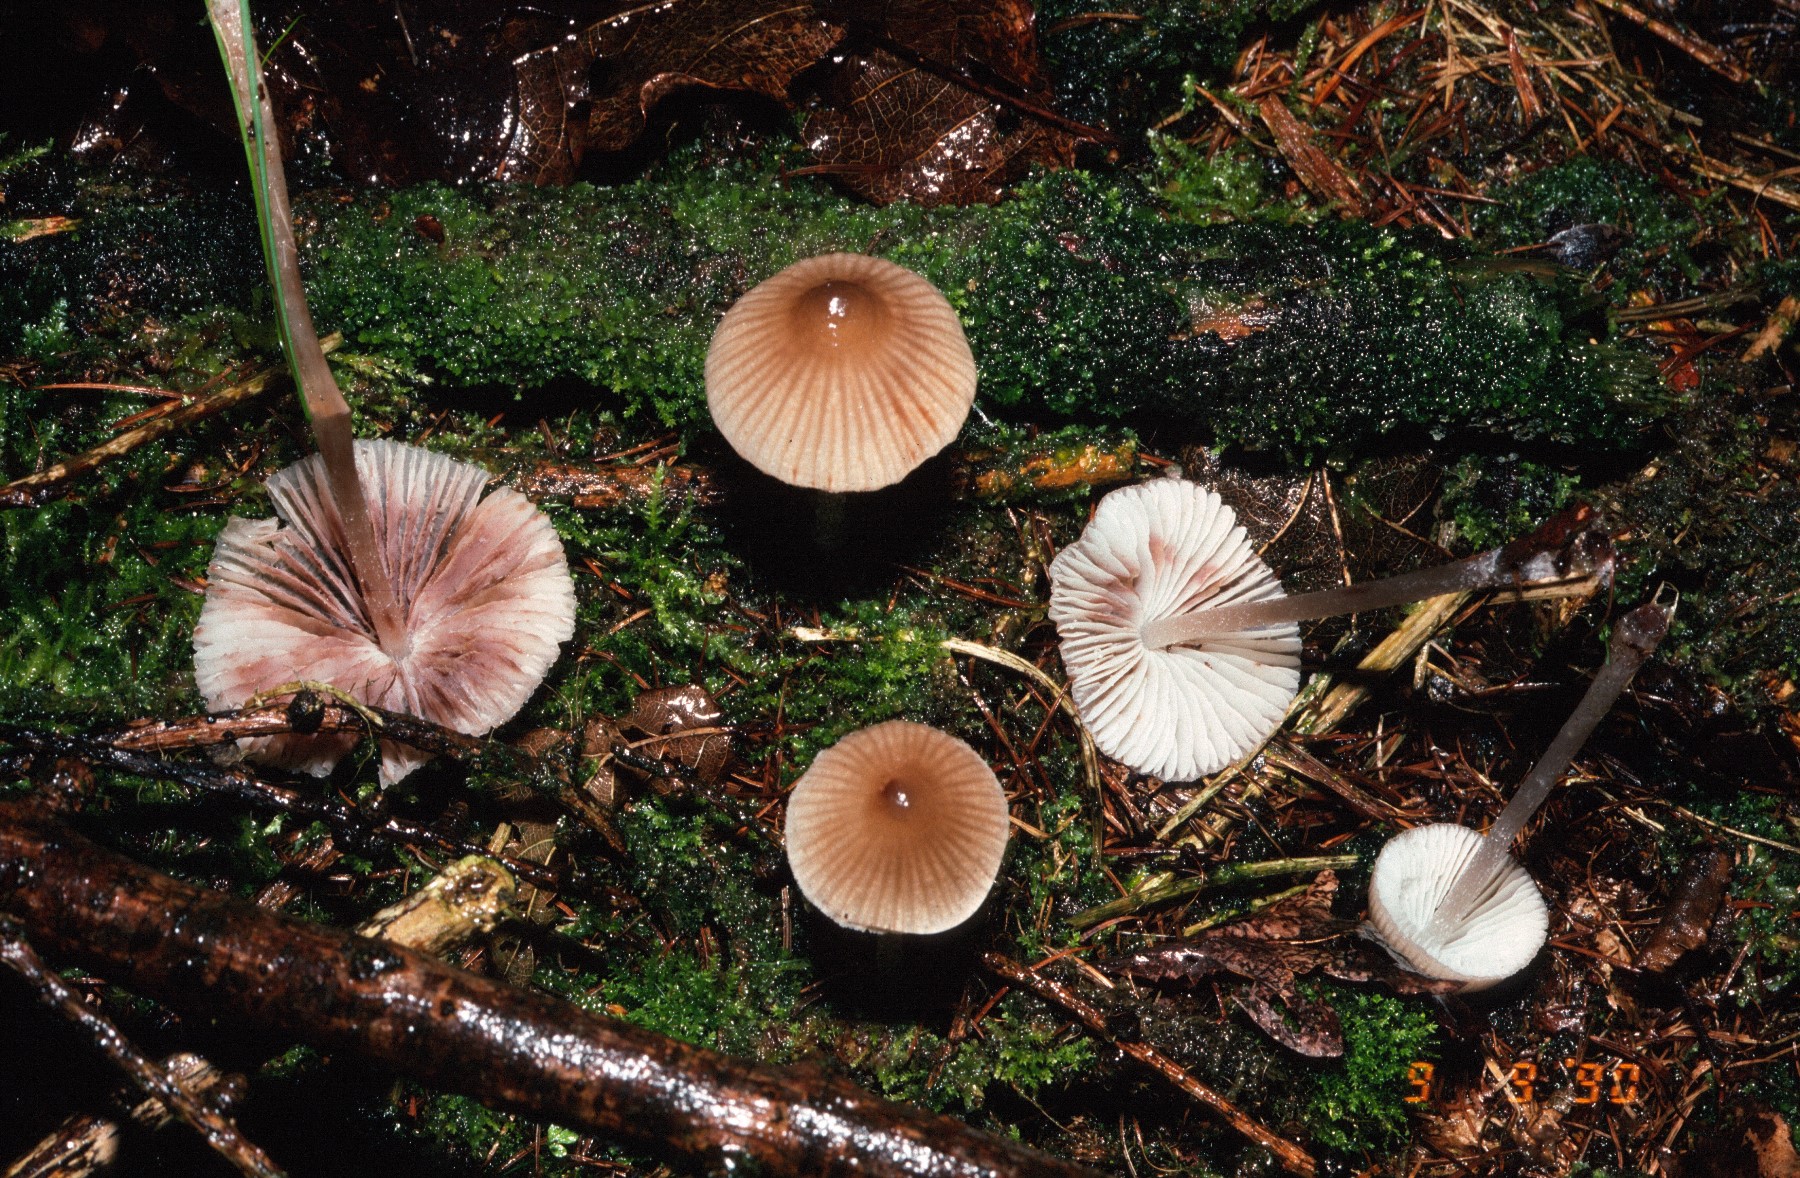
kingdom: Fungi
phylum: Basidiomycota
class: Agaricomycetes
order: Agaricales
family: Mycenaceae
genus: Mycena
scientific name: Mycena zephirus
